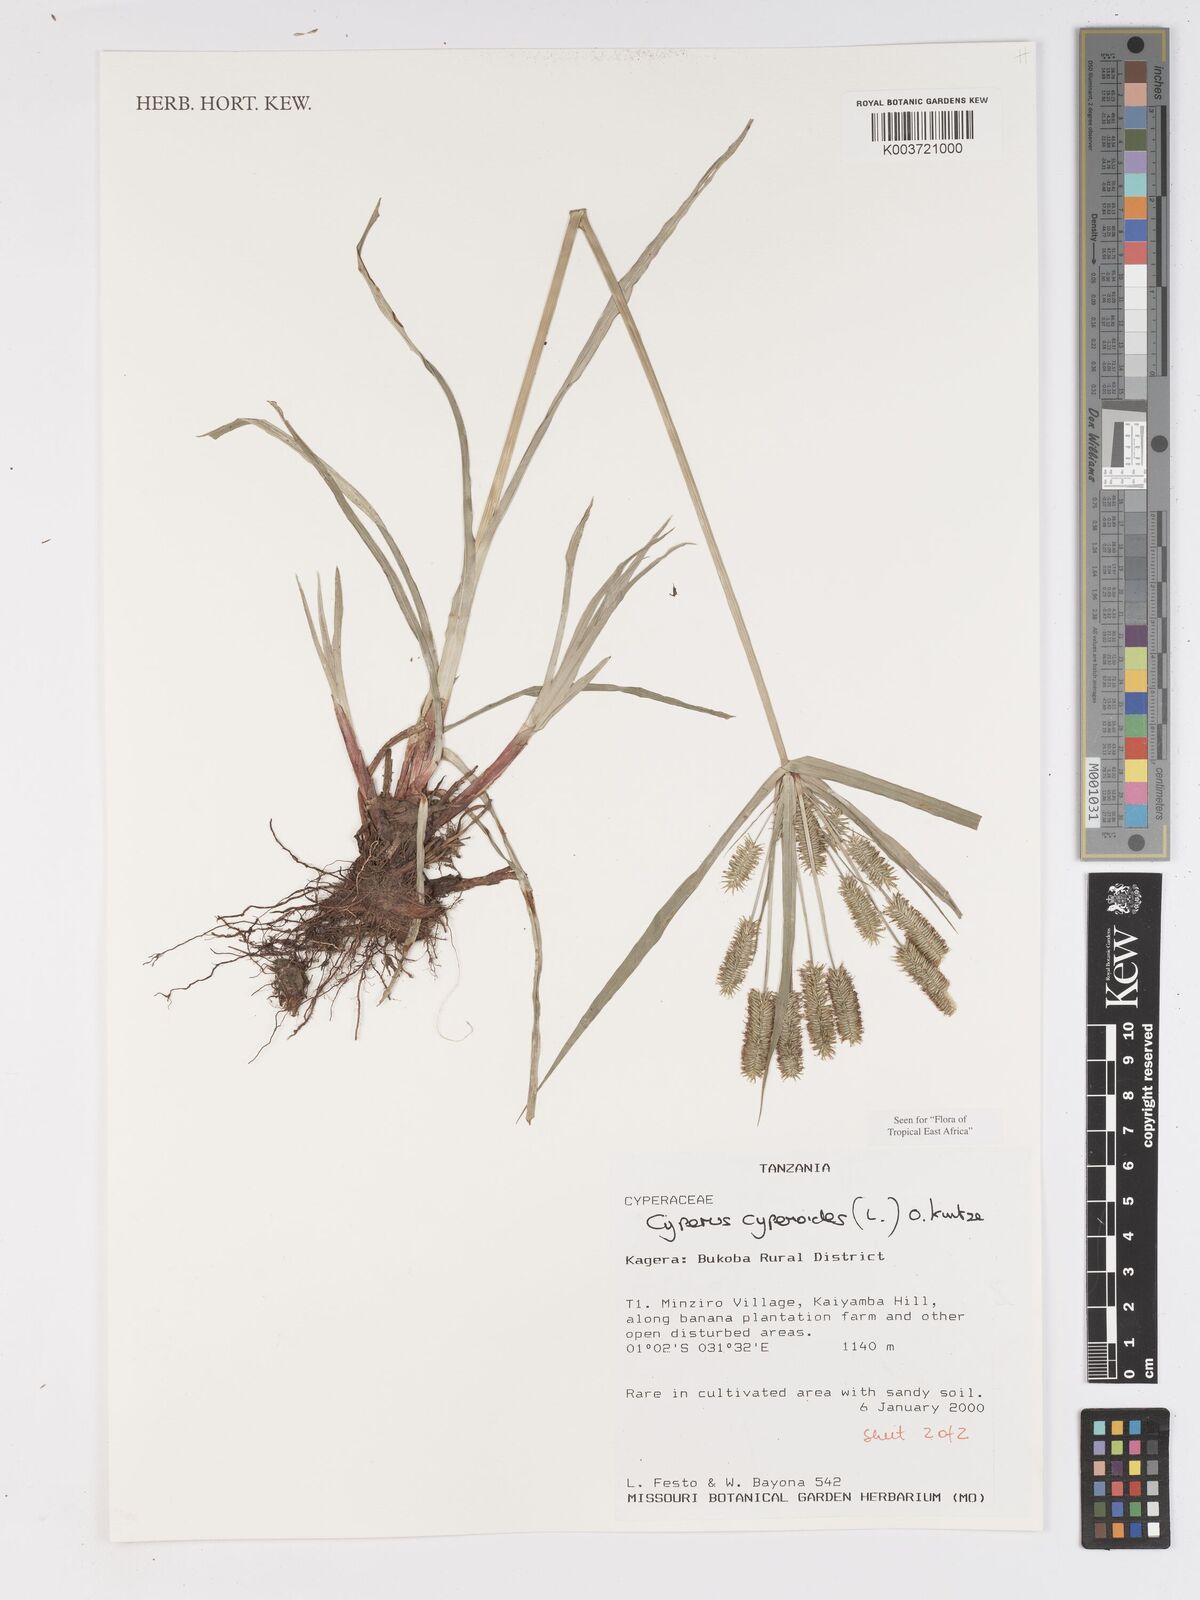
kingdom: Plantae
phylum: Tracheophyta
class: Liliopsida
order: Poales
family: Cyperaceae
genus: Cyperus
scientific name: Cyperus
